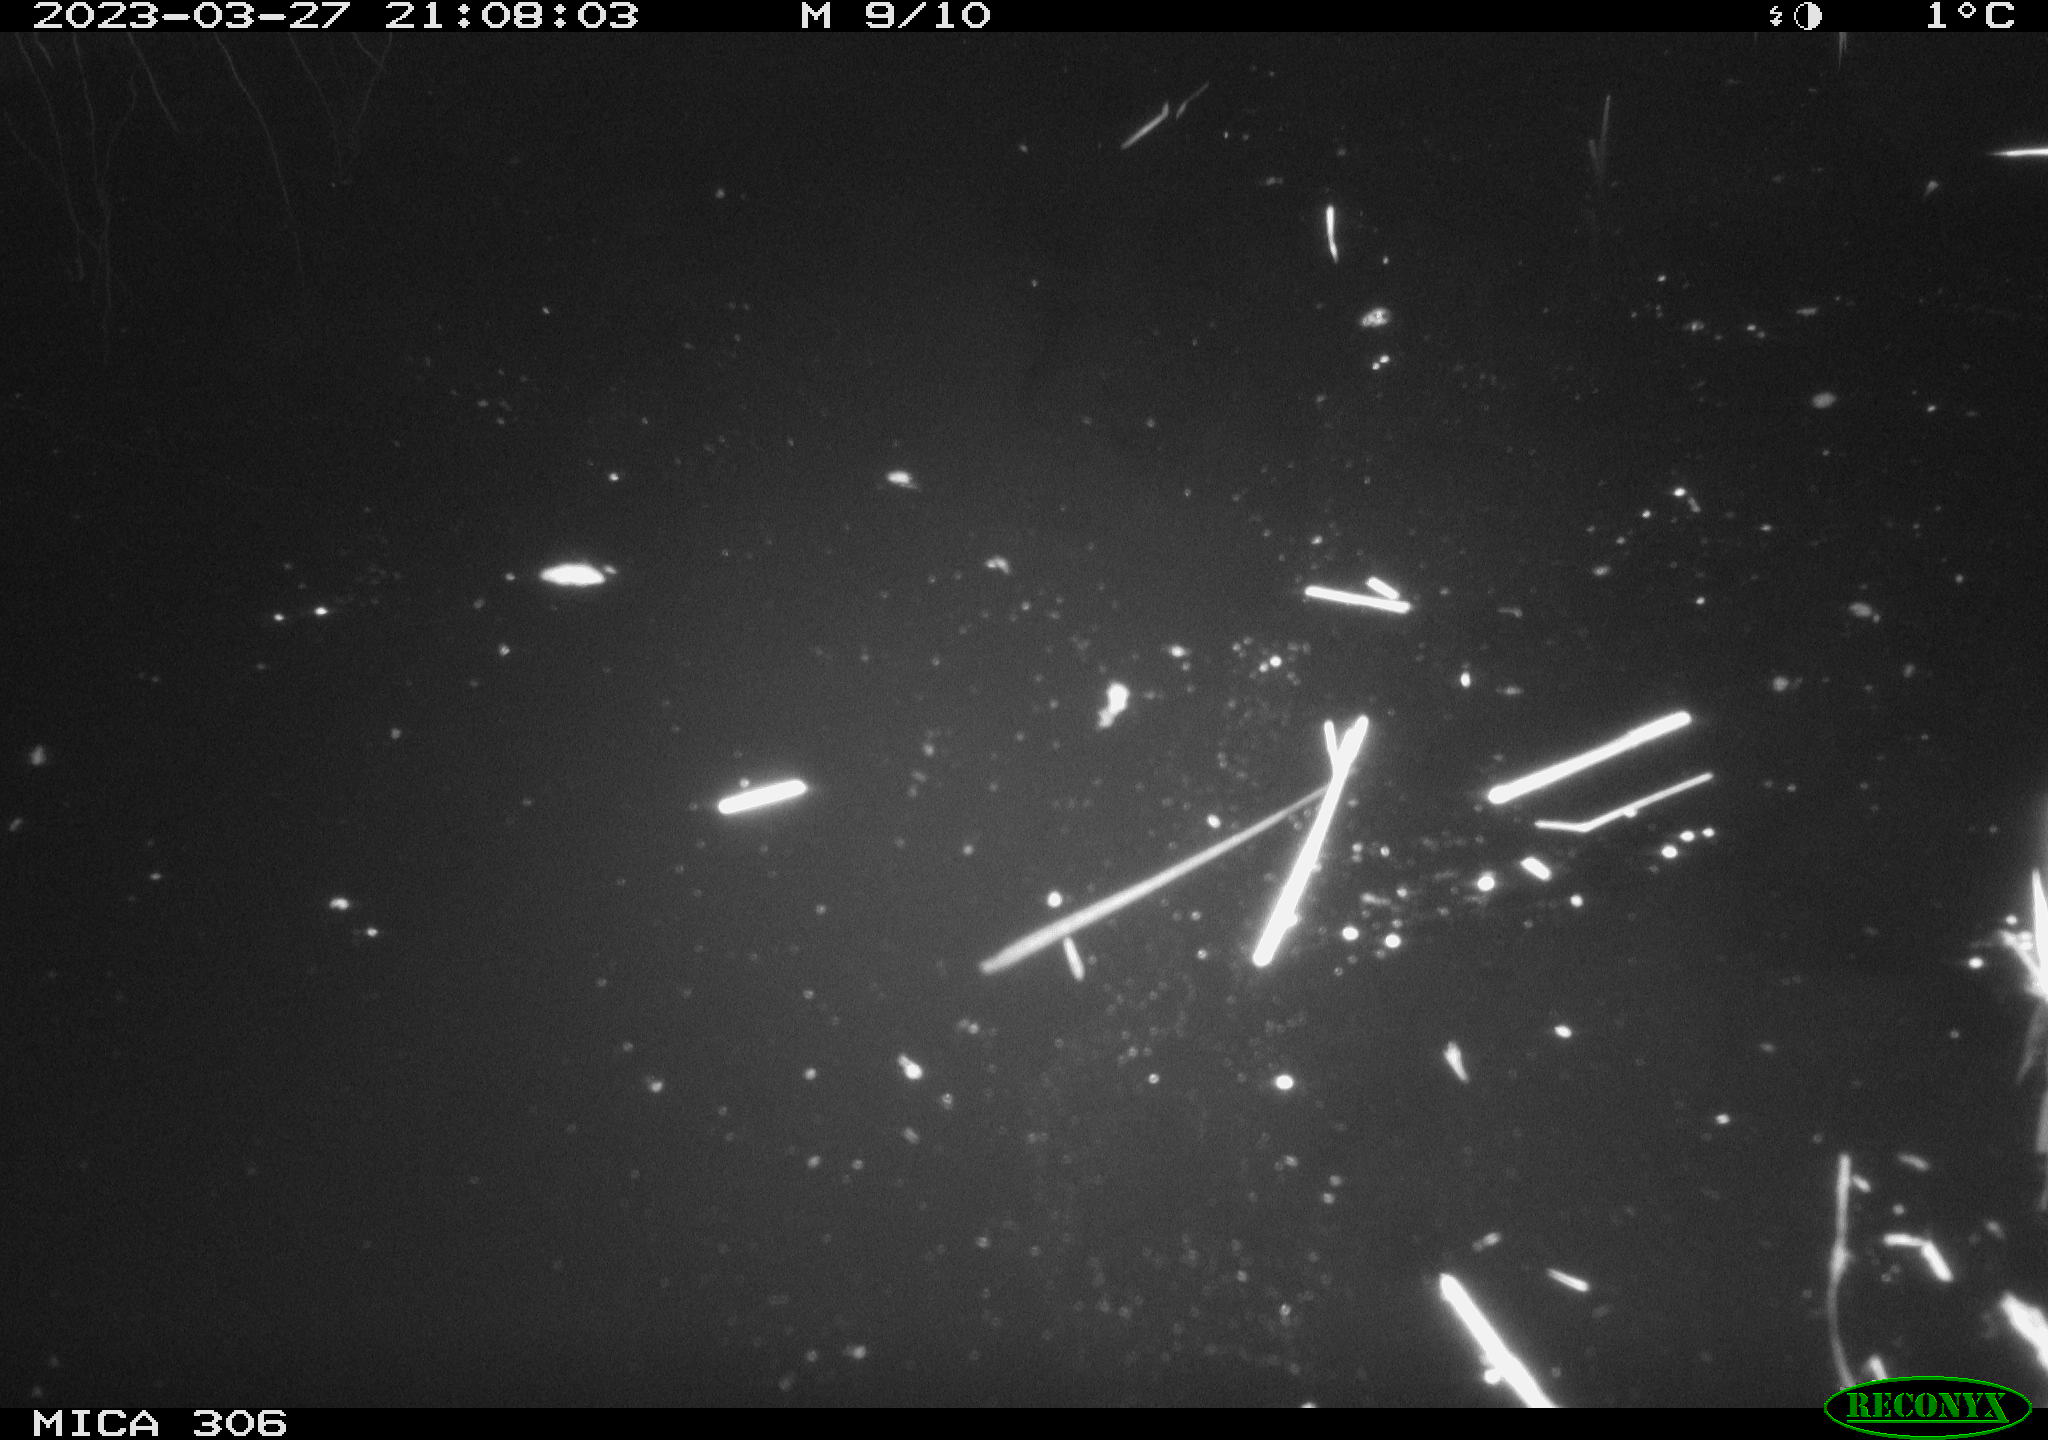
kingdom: Animalia
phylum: Chordata
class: Aves
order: Anseriformes
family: Anatidae
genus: Anas
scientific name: Anas
